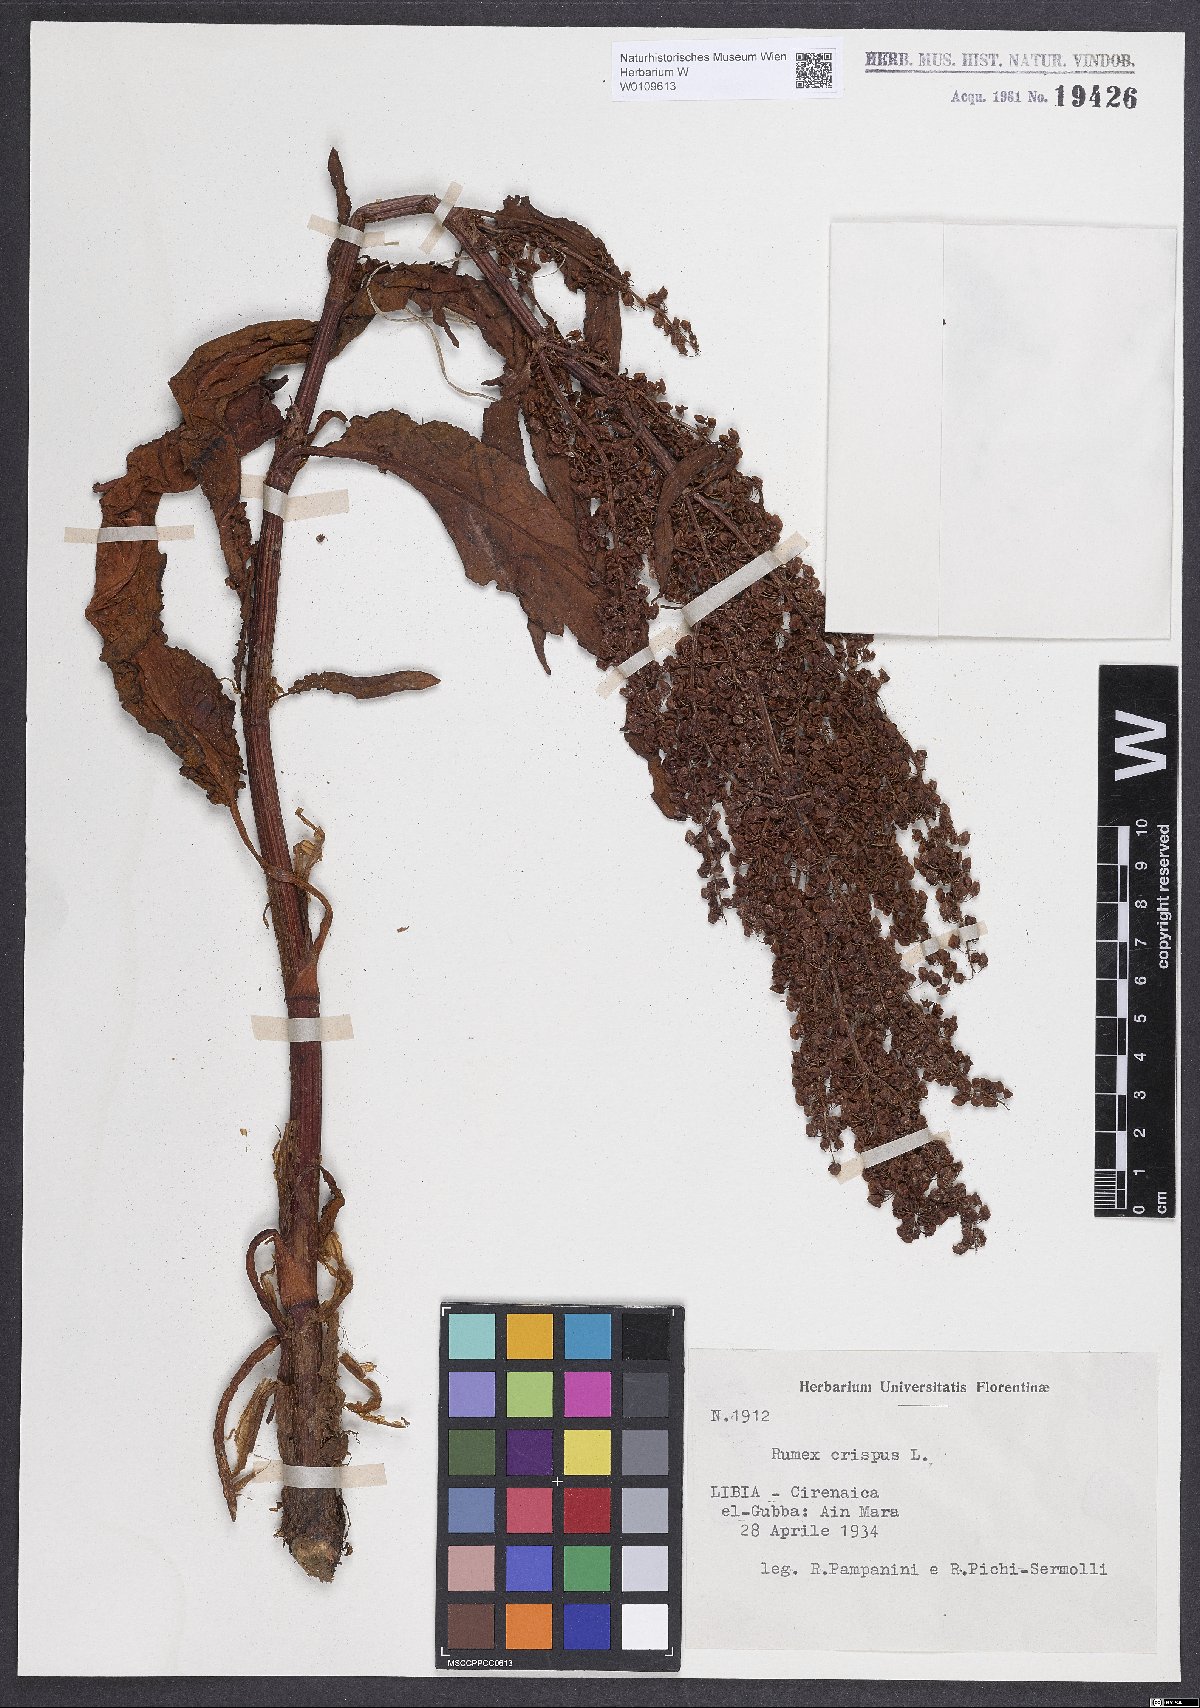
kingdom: Plantae
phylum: Tracheophyta
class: Magnoliopsida
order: Caryophyllales
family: Polygonaceae
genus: Rumex
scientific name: Rumex crispus
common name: Curled dock
